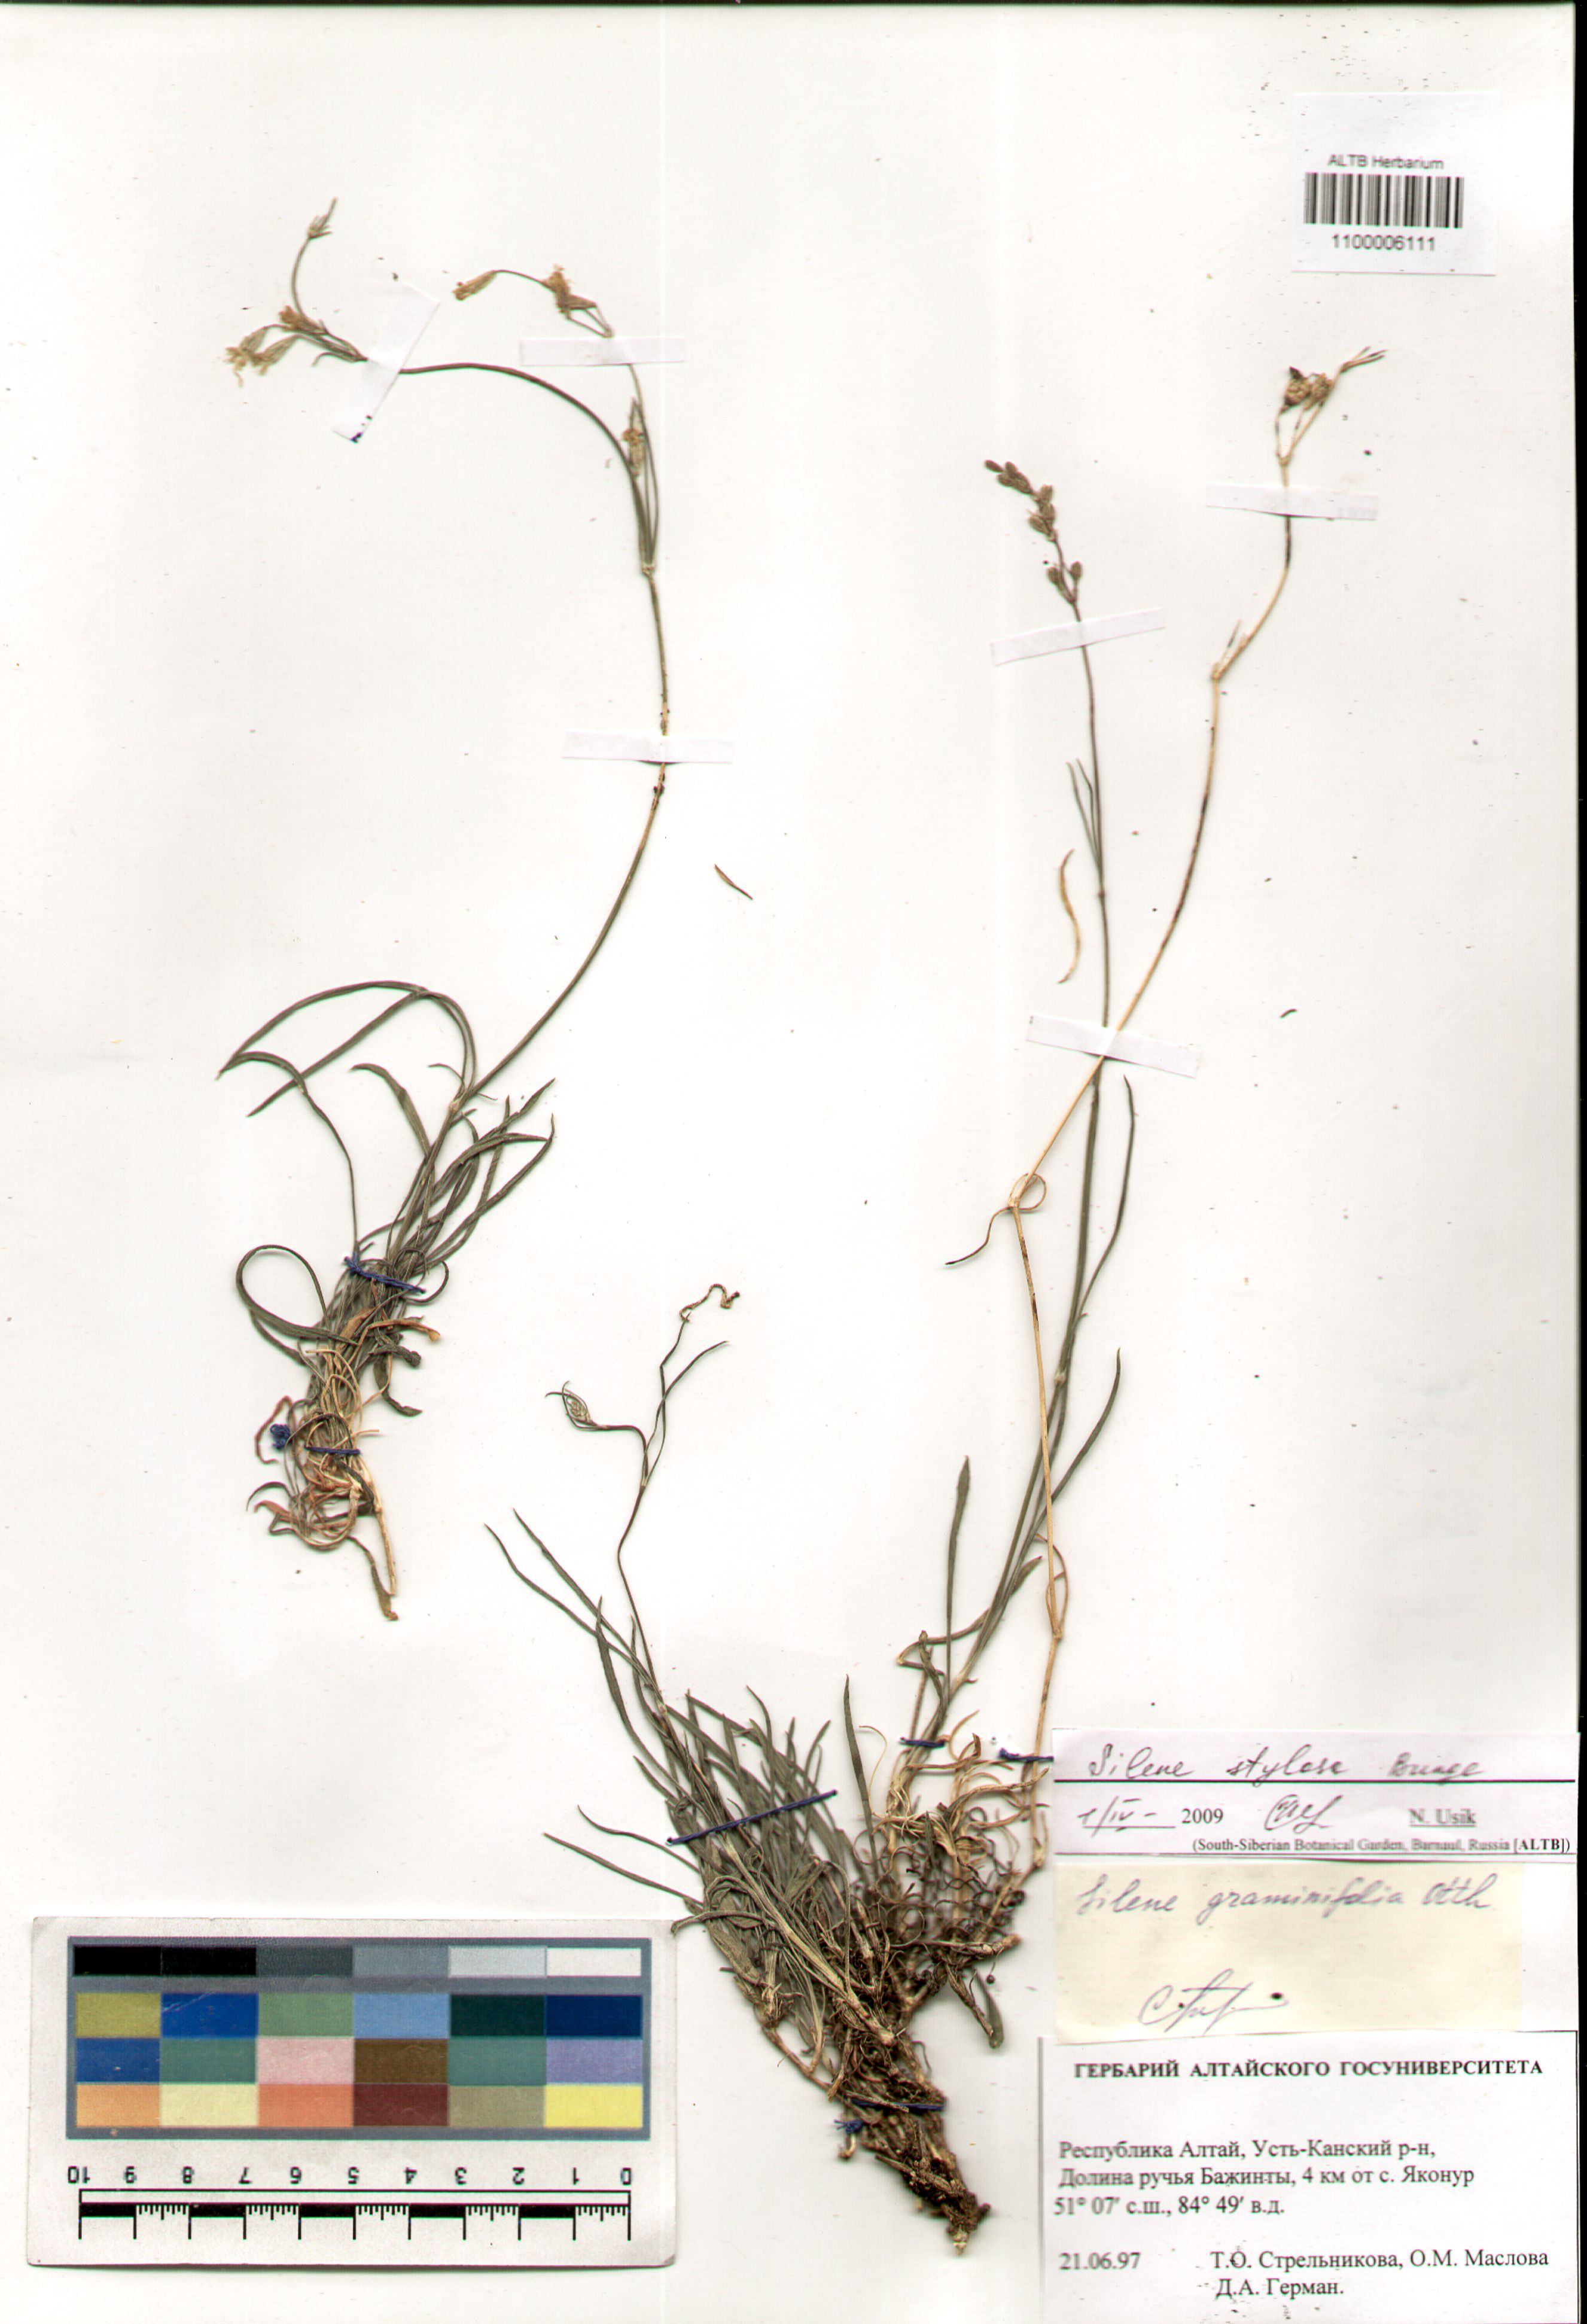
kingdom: Plantae
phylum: Tracheophyta
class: Magnoliopsida
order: Caryophyllales
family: Caryophyllaceae
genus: Silene
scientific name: Silene graminifolia
